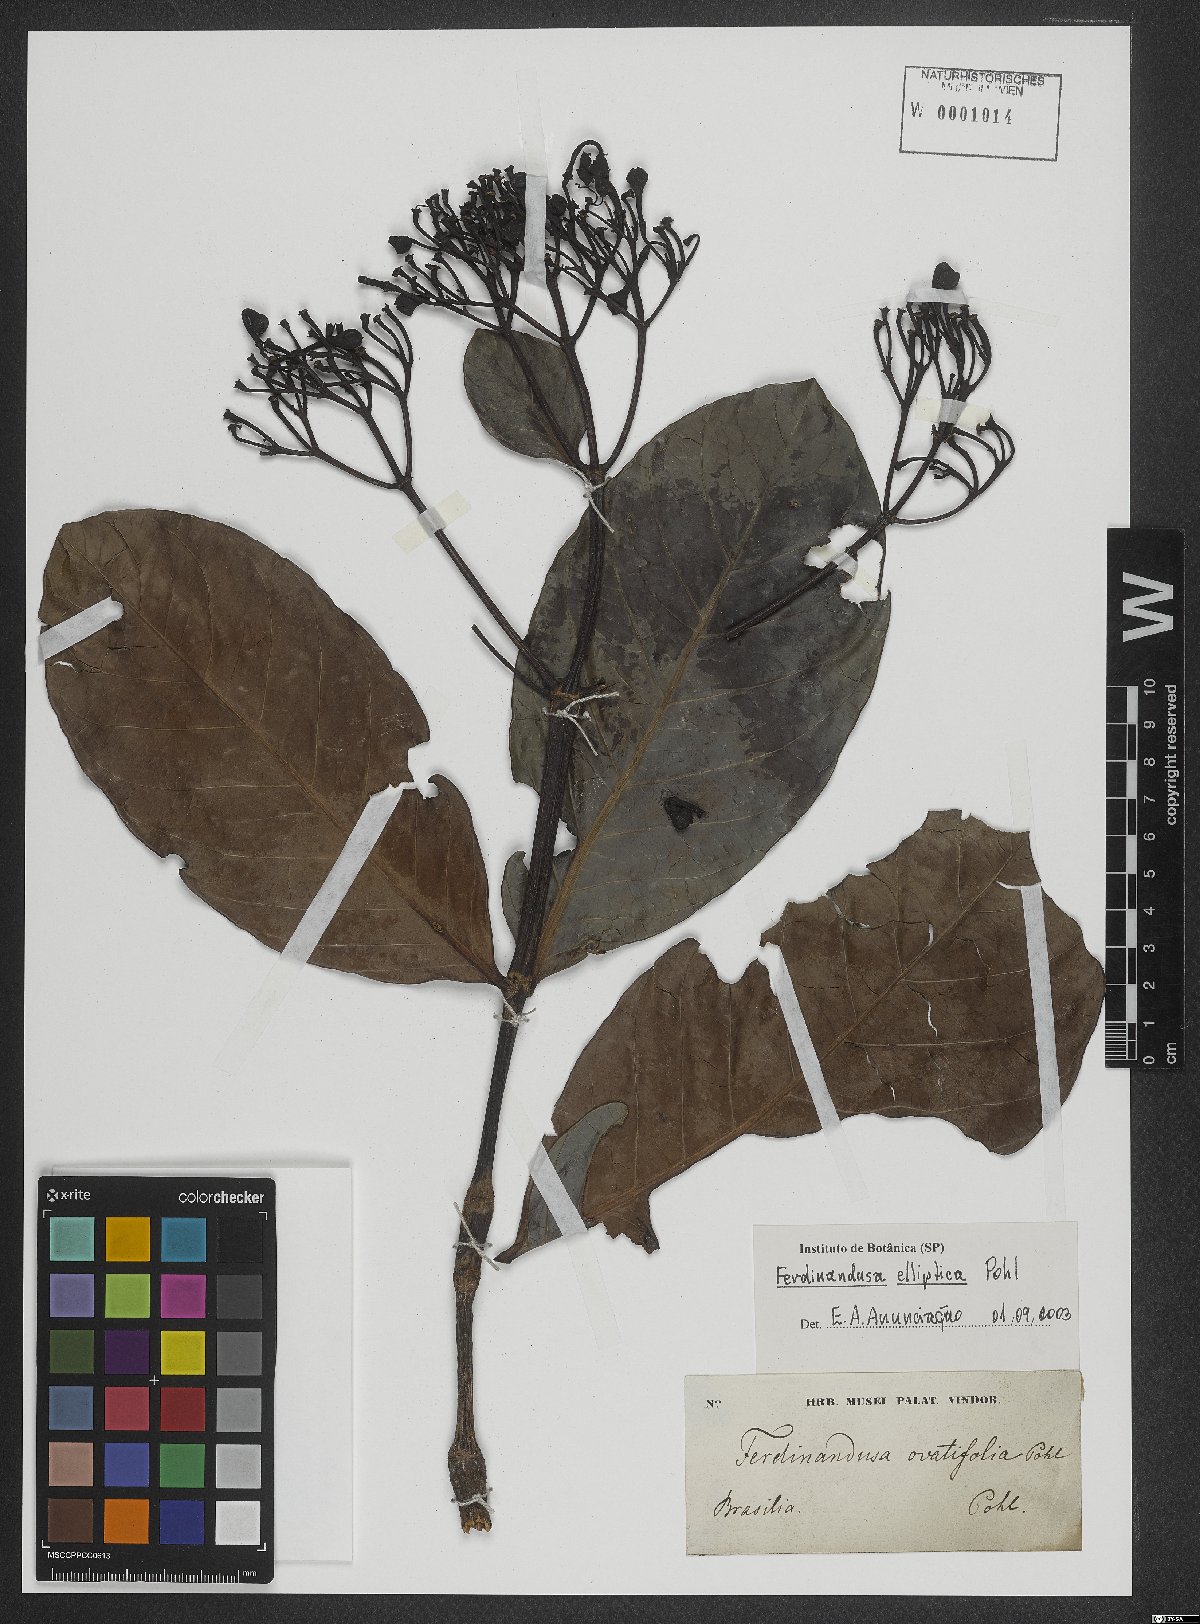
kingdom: Plantae
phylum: Tracheophyta
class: Magnoliopsida
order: Gentianales
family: Rubiaceae
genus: Ferdinandusa
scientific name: Ferdinandusa elliptica
